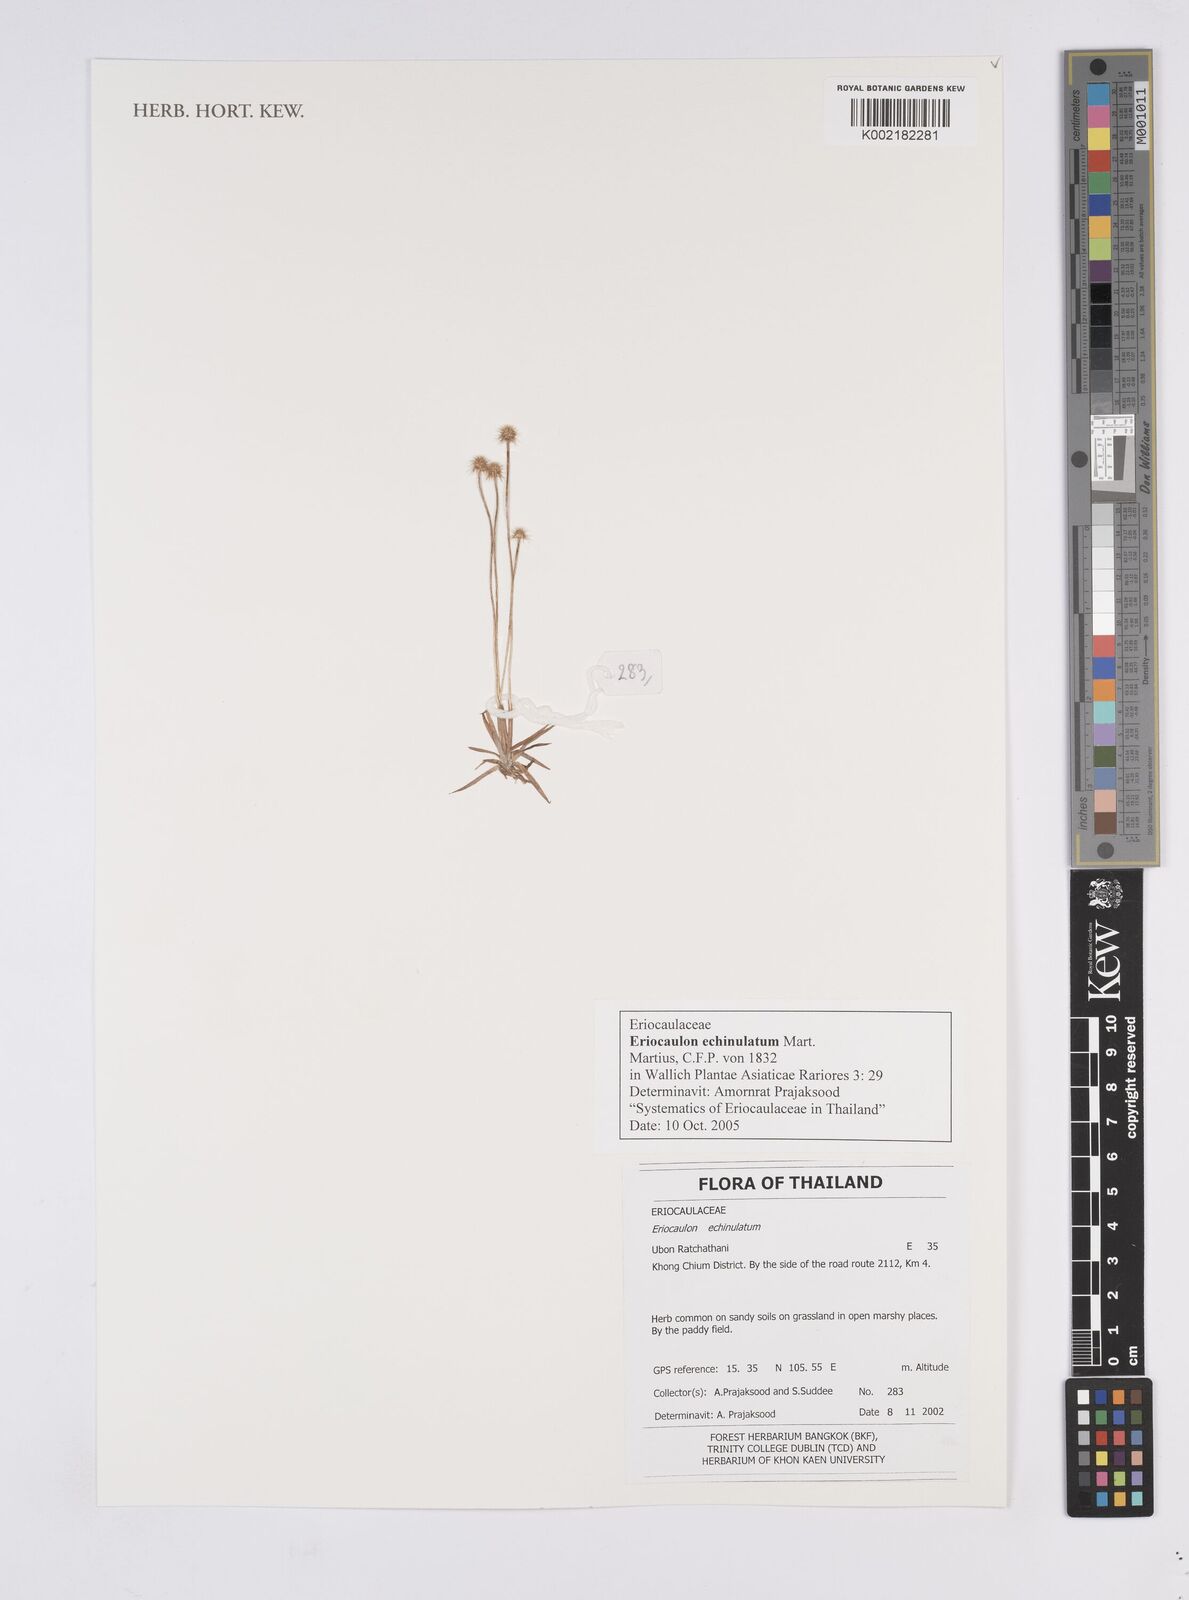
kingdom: Plantae
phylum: Tracheophyta
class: Liliopsida
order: Poales
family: Eriocaulaceae
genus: Eriocaulon
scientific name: Eriocaulon echinulatum
